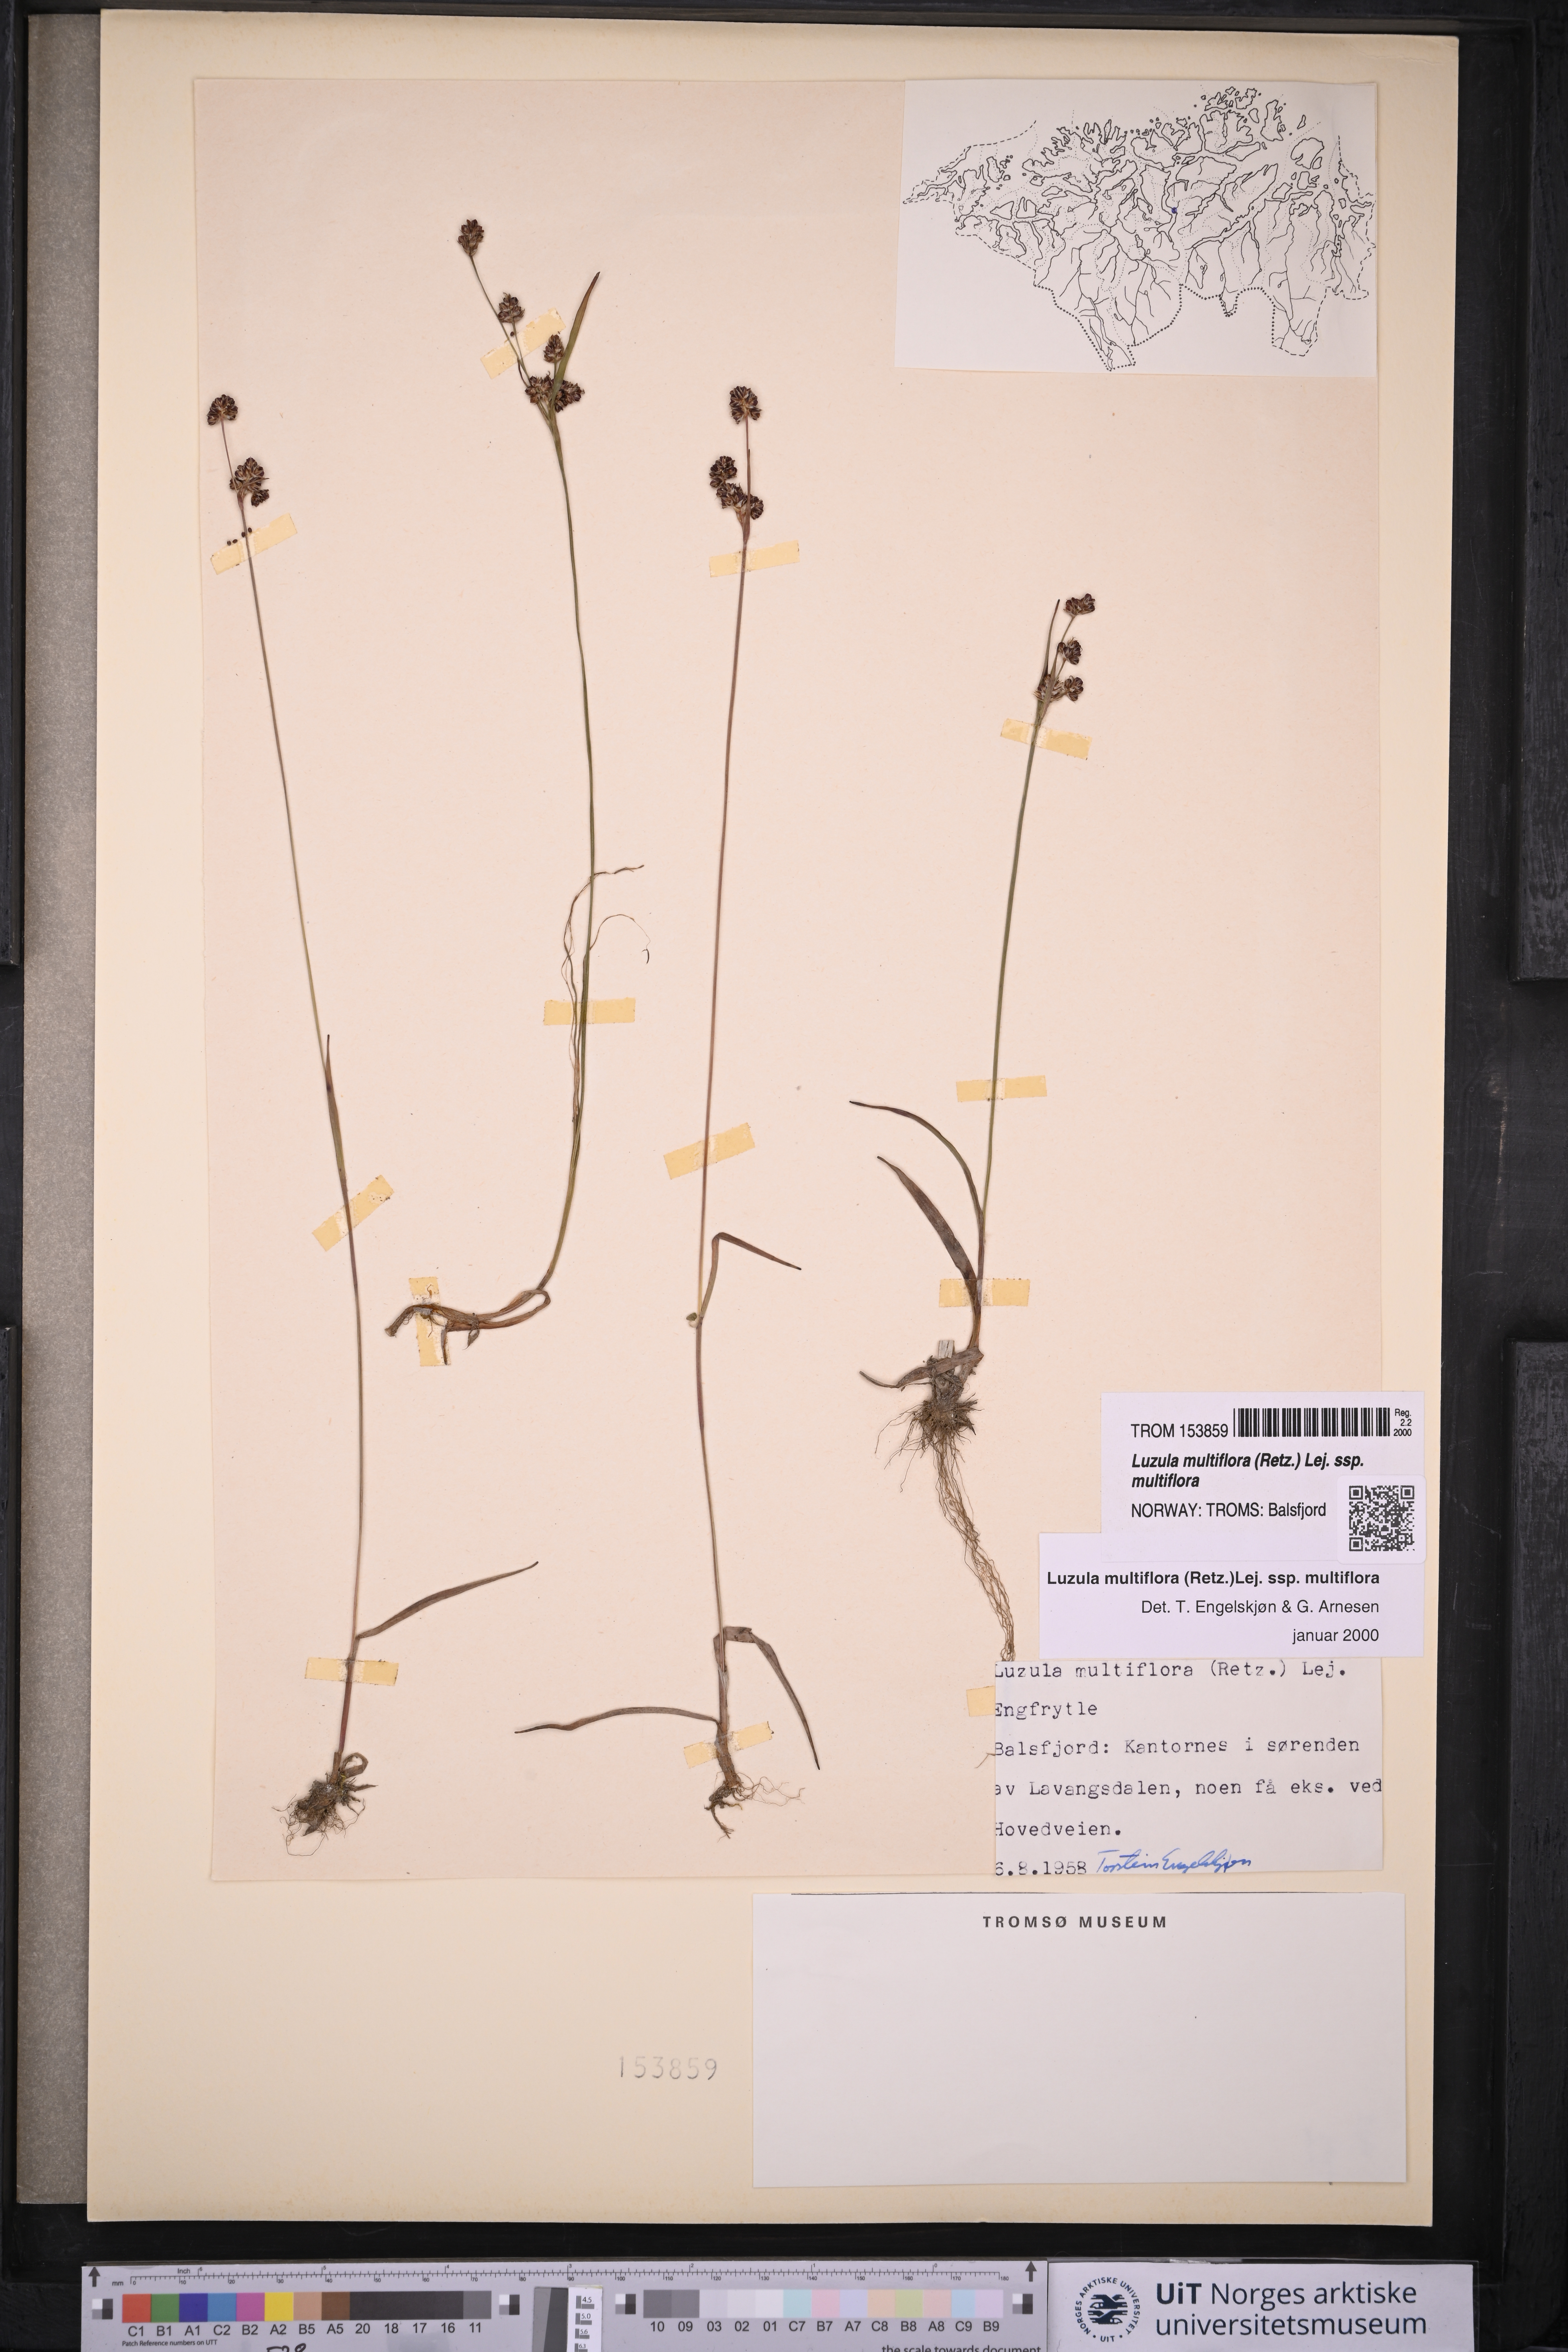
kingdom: Plantae
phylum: Tracheophyta
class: Liliopsida
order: Poales
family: Juncaceae
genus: Luzula
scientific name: Luzula multiflora
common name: Heath wood-rush
